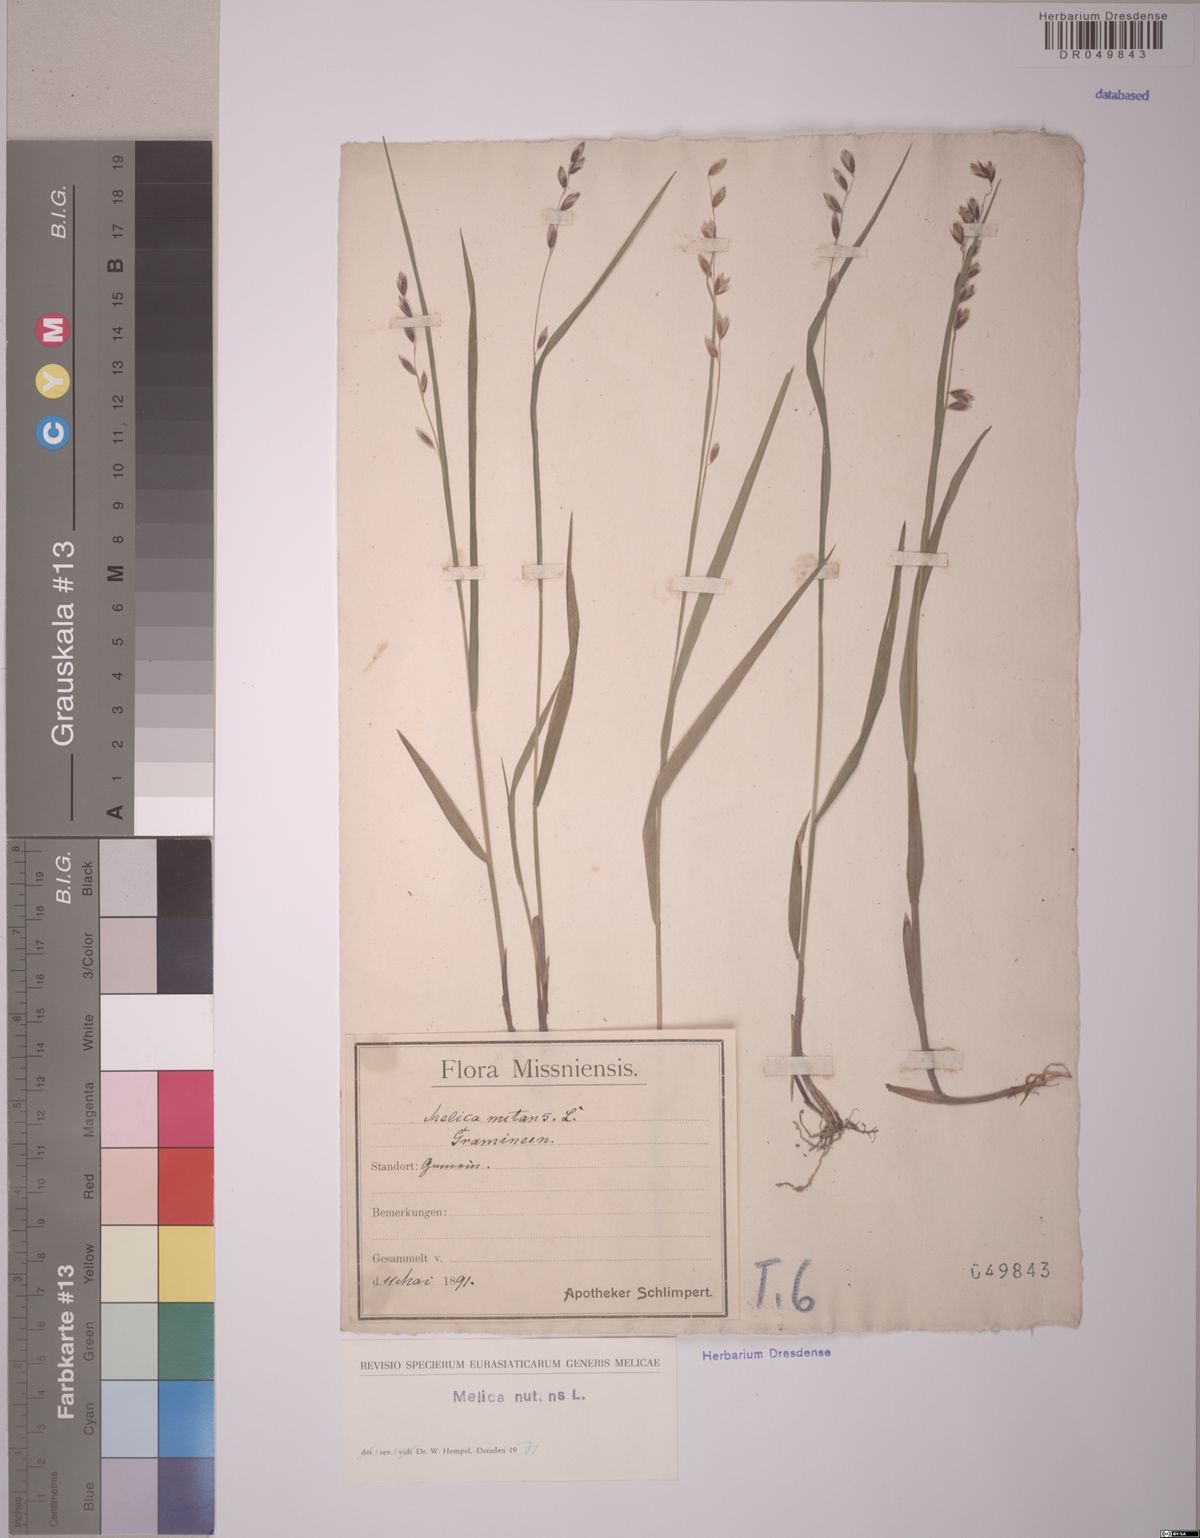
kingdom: Plantae
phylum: Tracheophyta
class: Liliopsida
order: Poales
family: Poaceae
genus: Melica
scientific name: Melica nutans
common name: Mountain melick
